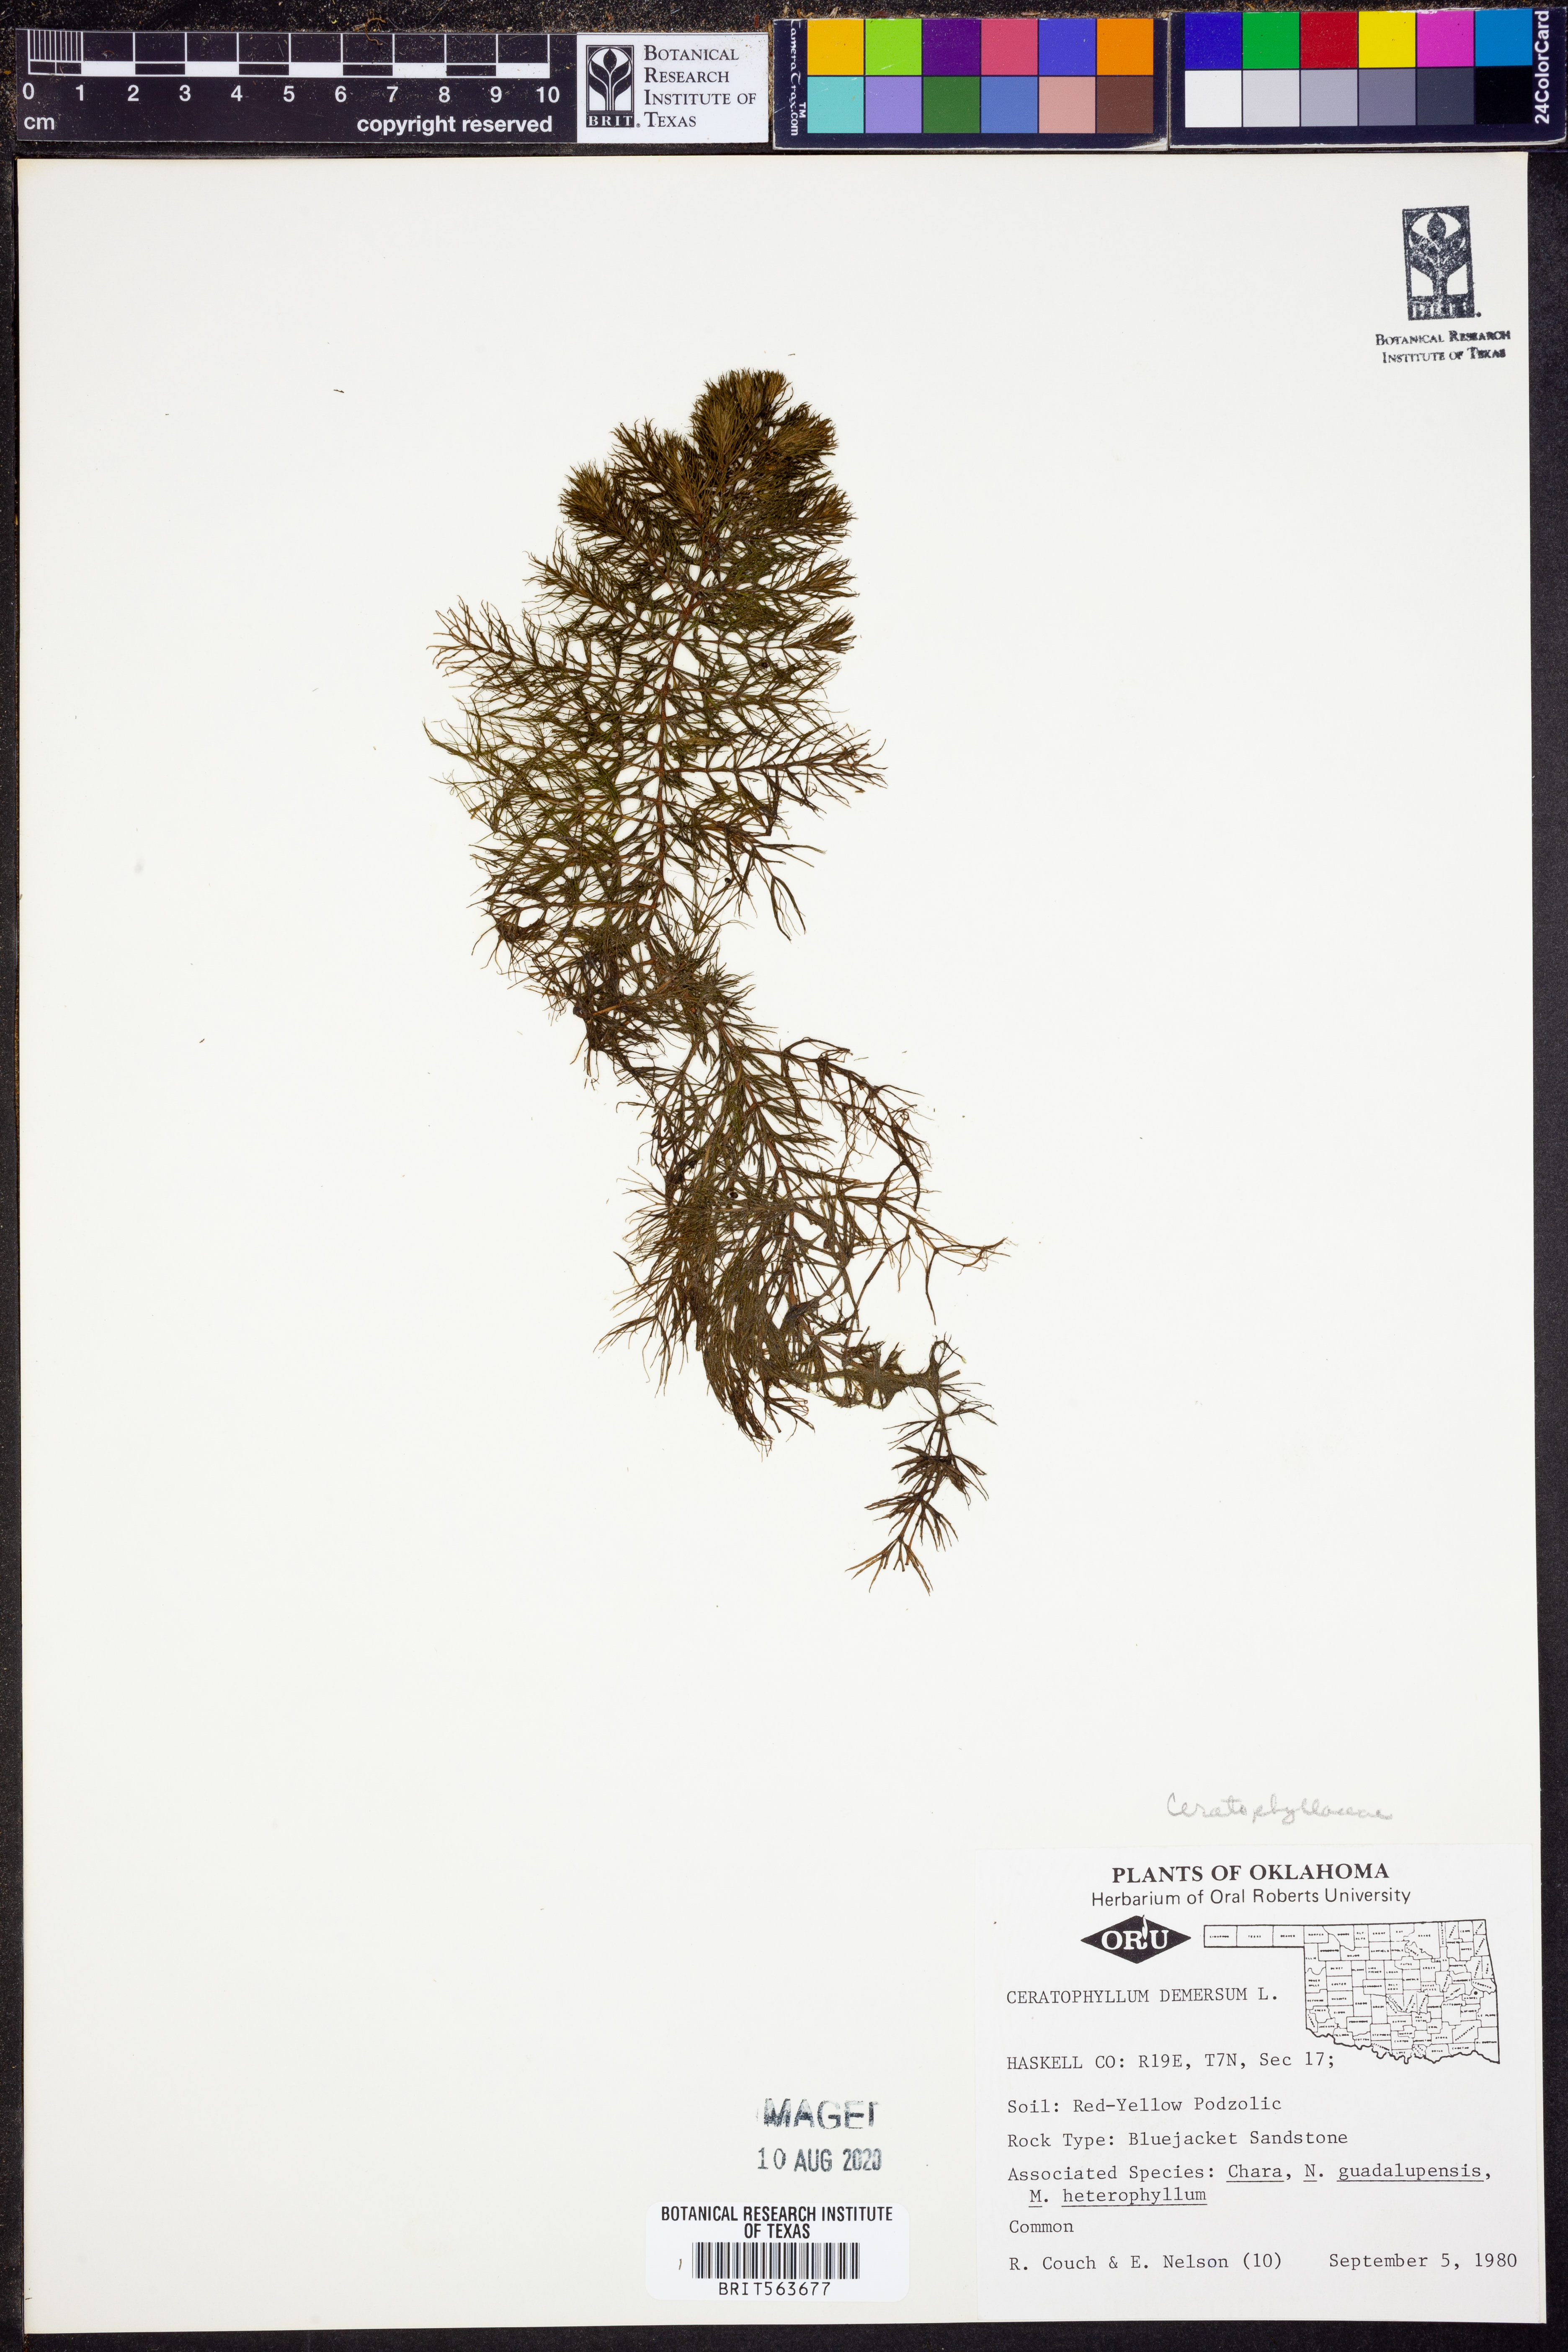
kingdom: Plantae
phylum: Tracheophyta
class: Magnoliopsida
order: Ceratophyllales
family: Ceratophyllaceae
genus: Ceratophyllum
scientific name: Ceratophyllum demersum
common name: Rigid hornwort
